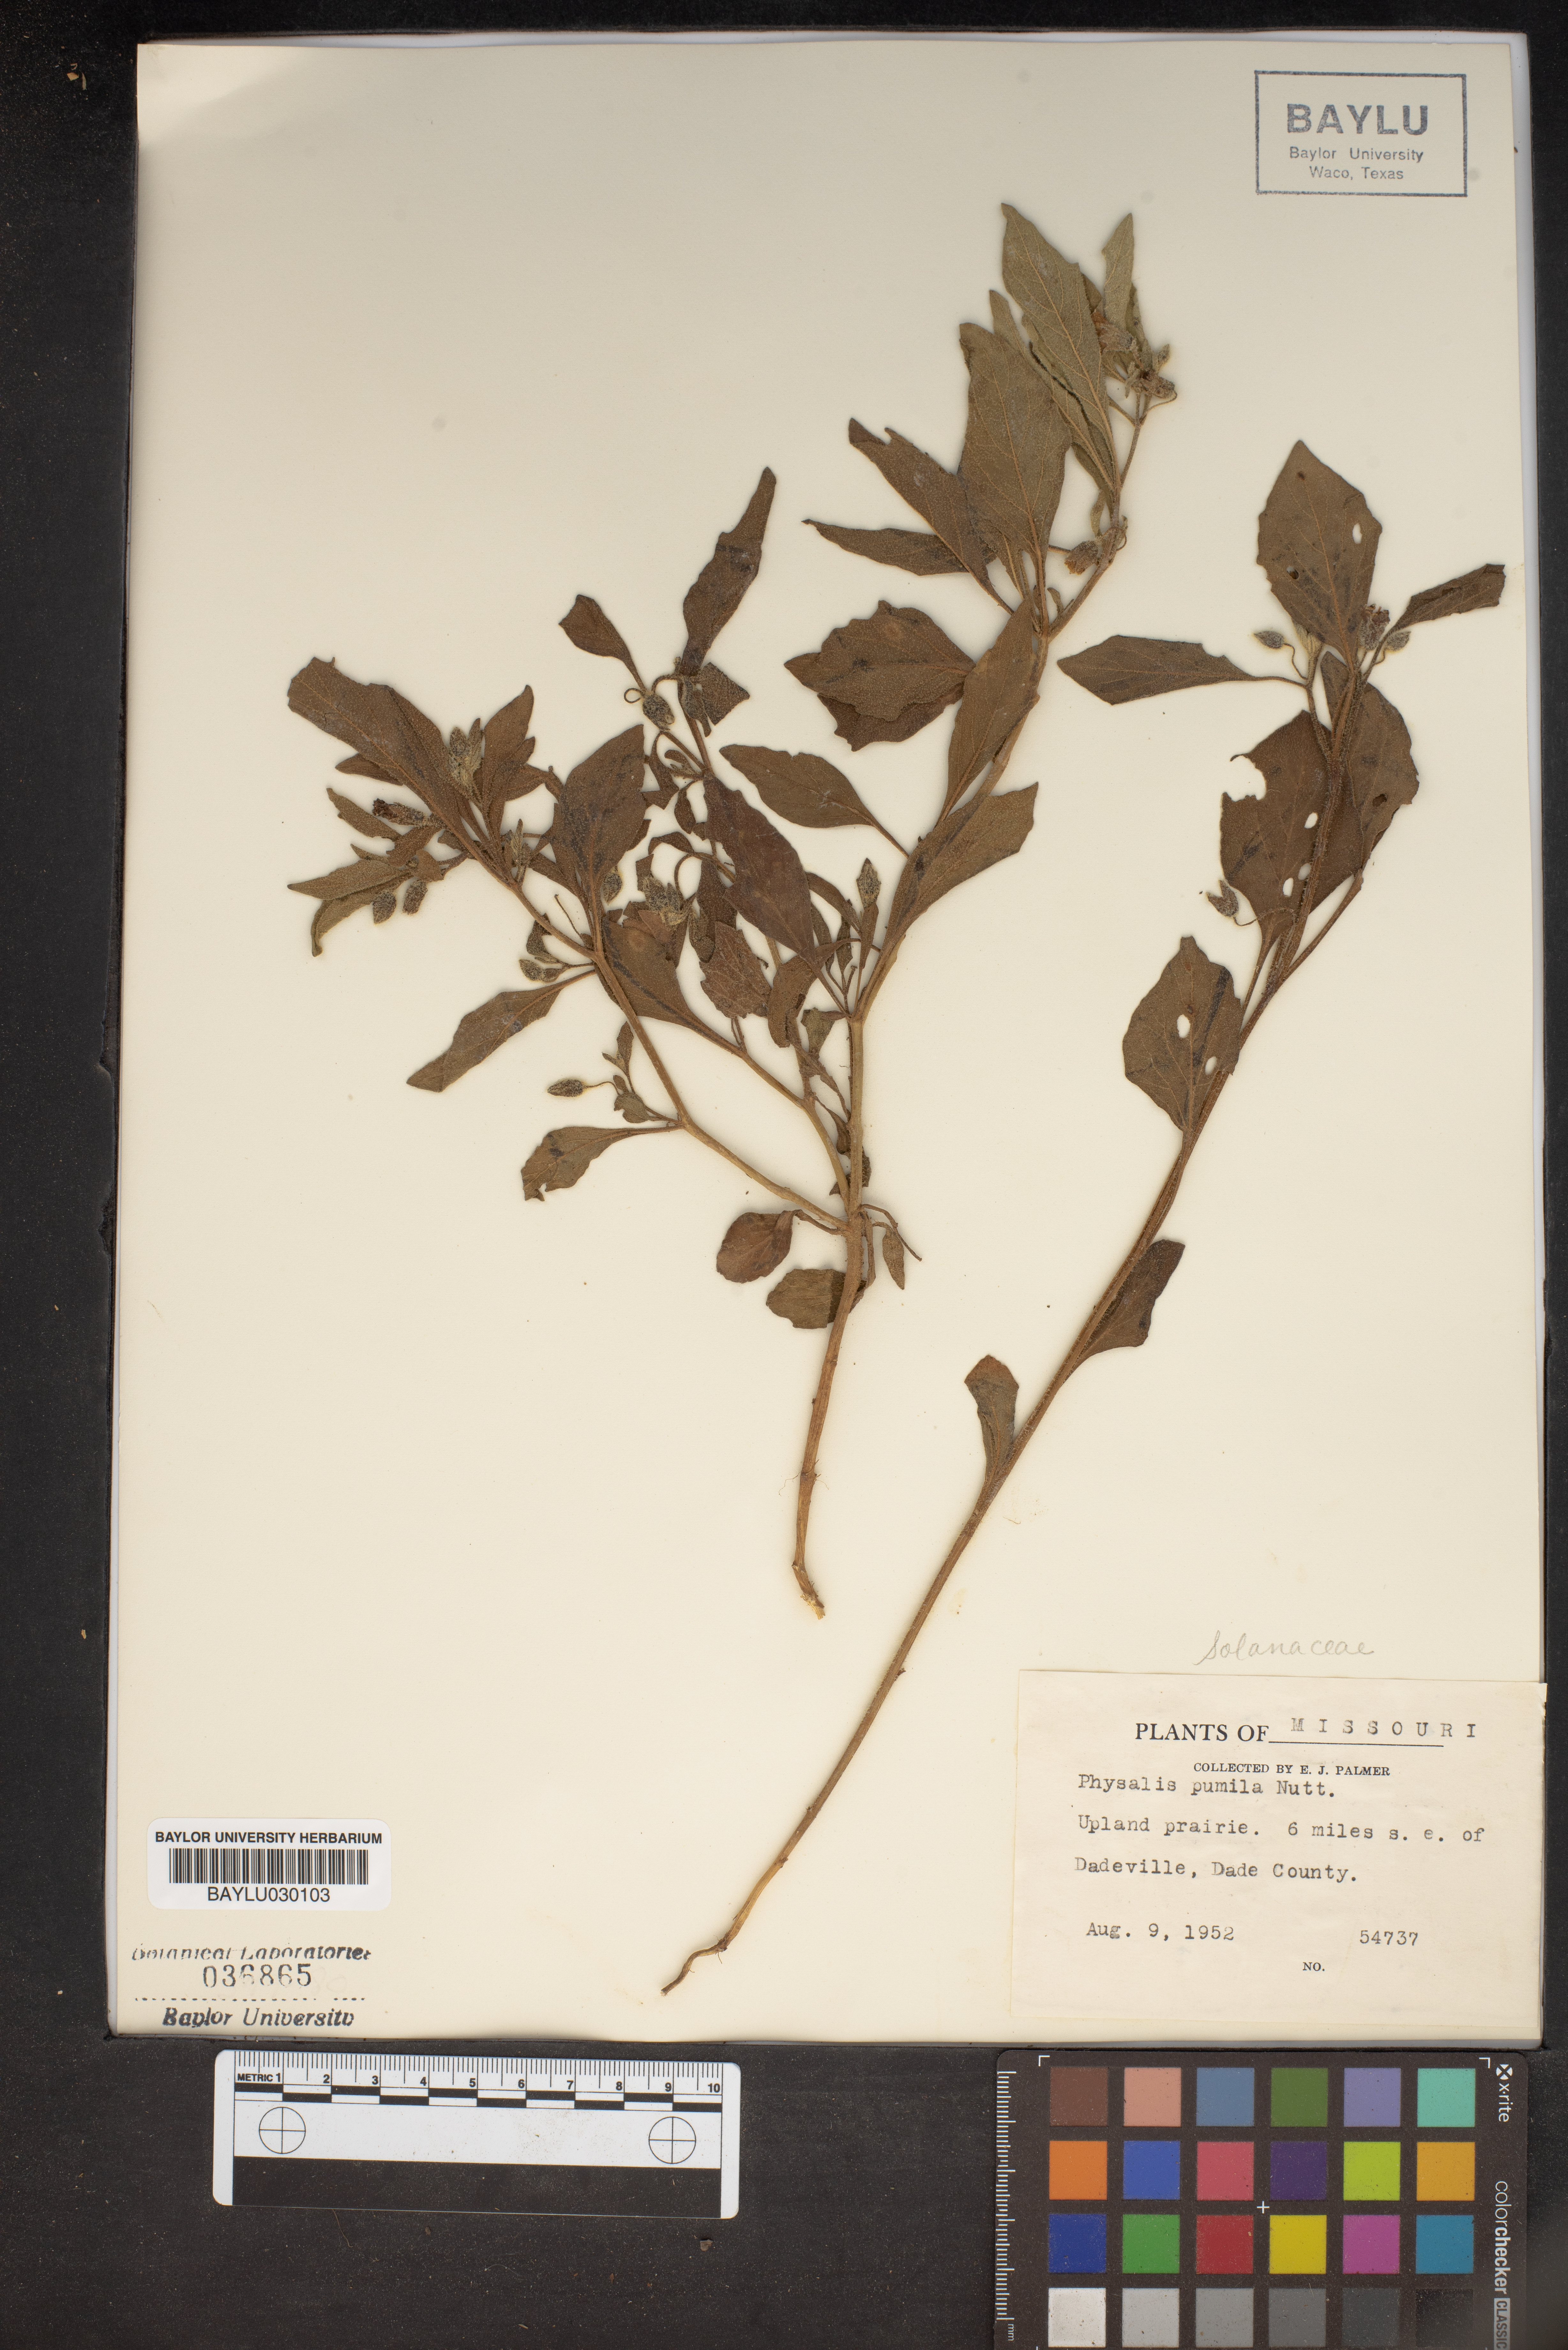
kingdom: Plantae
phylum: Tracheophyta
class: Magnoliopsida
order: Solanales
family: Solanaceae
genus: Physalis
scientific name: Physalis pumila
